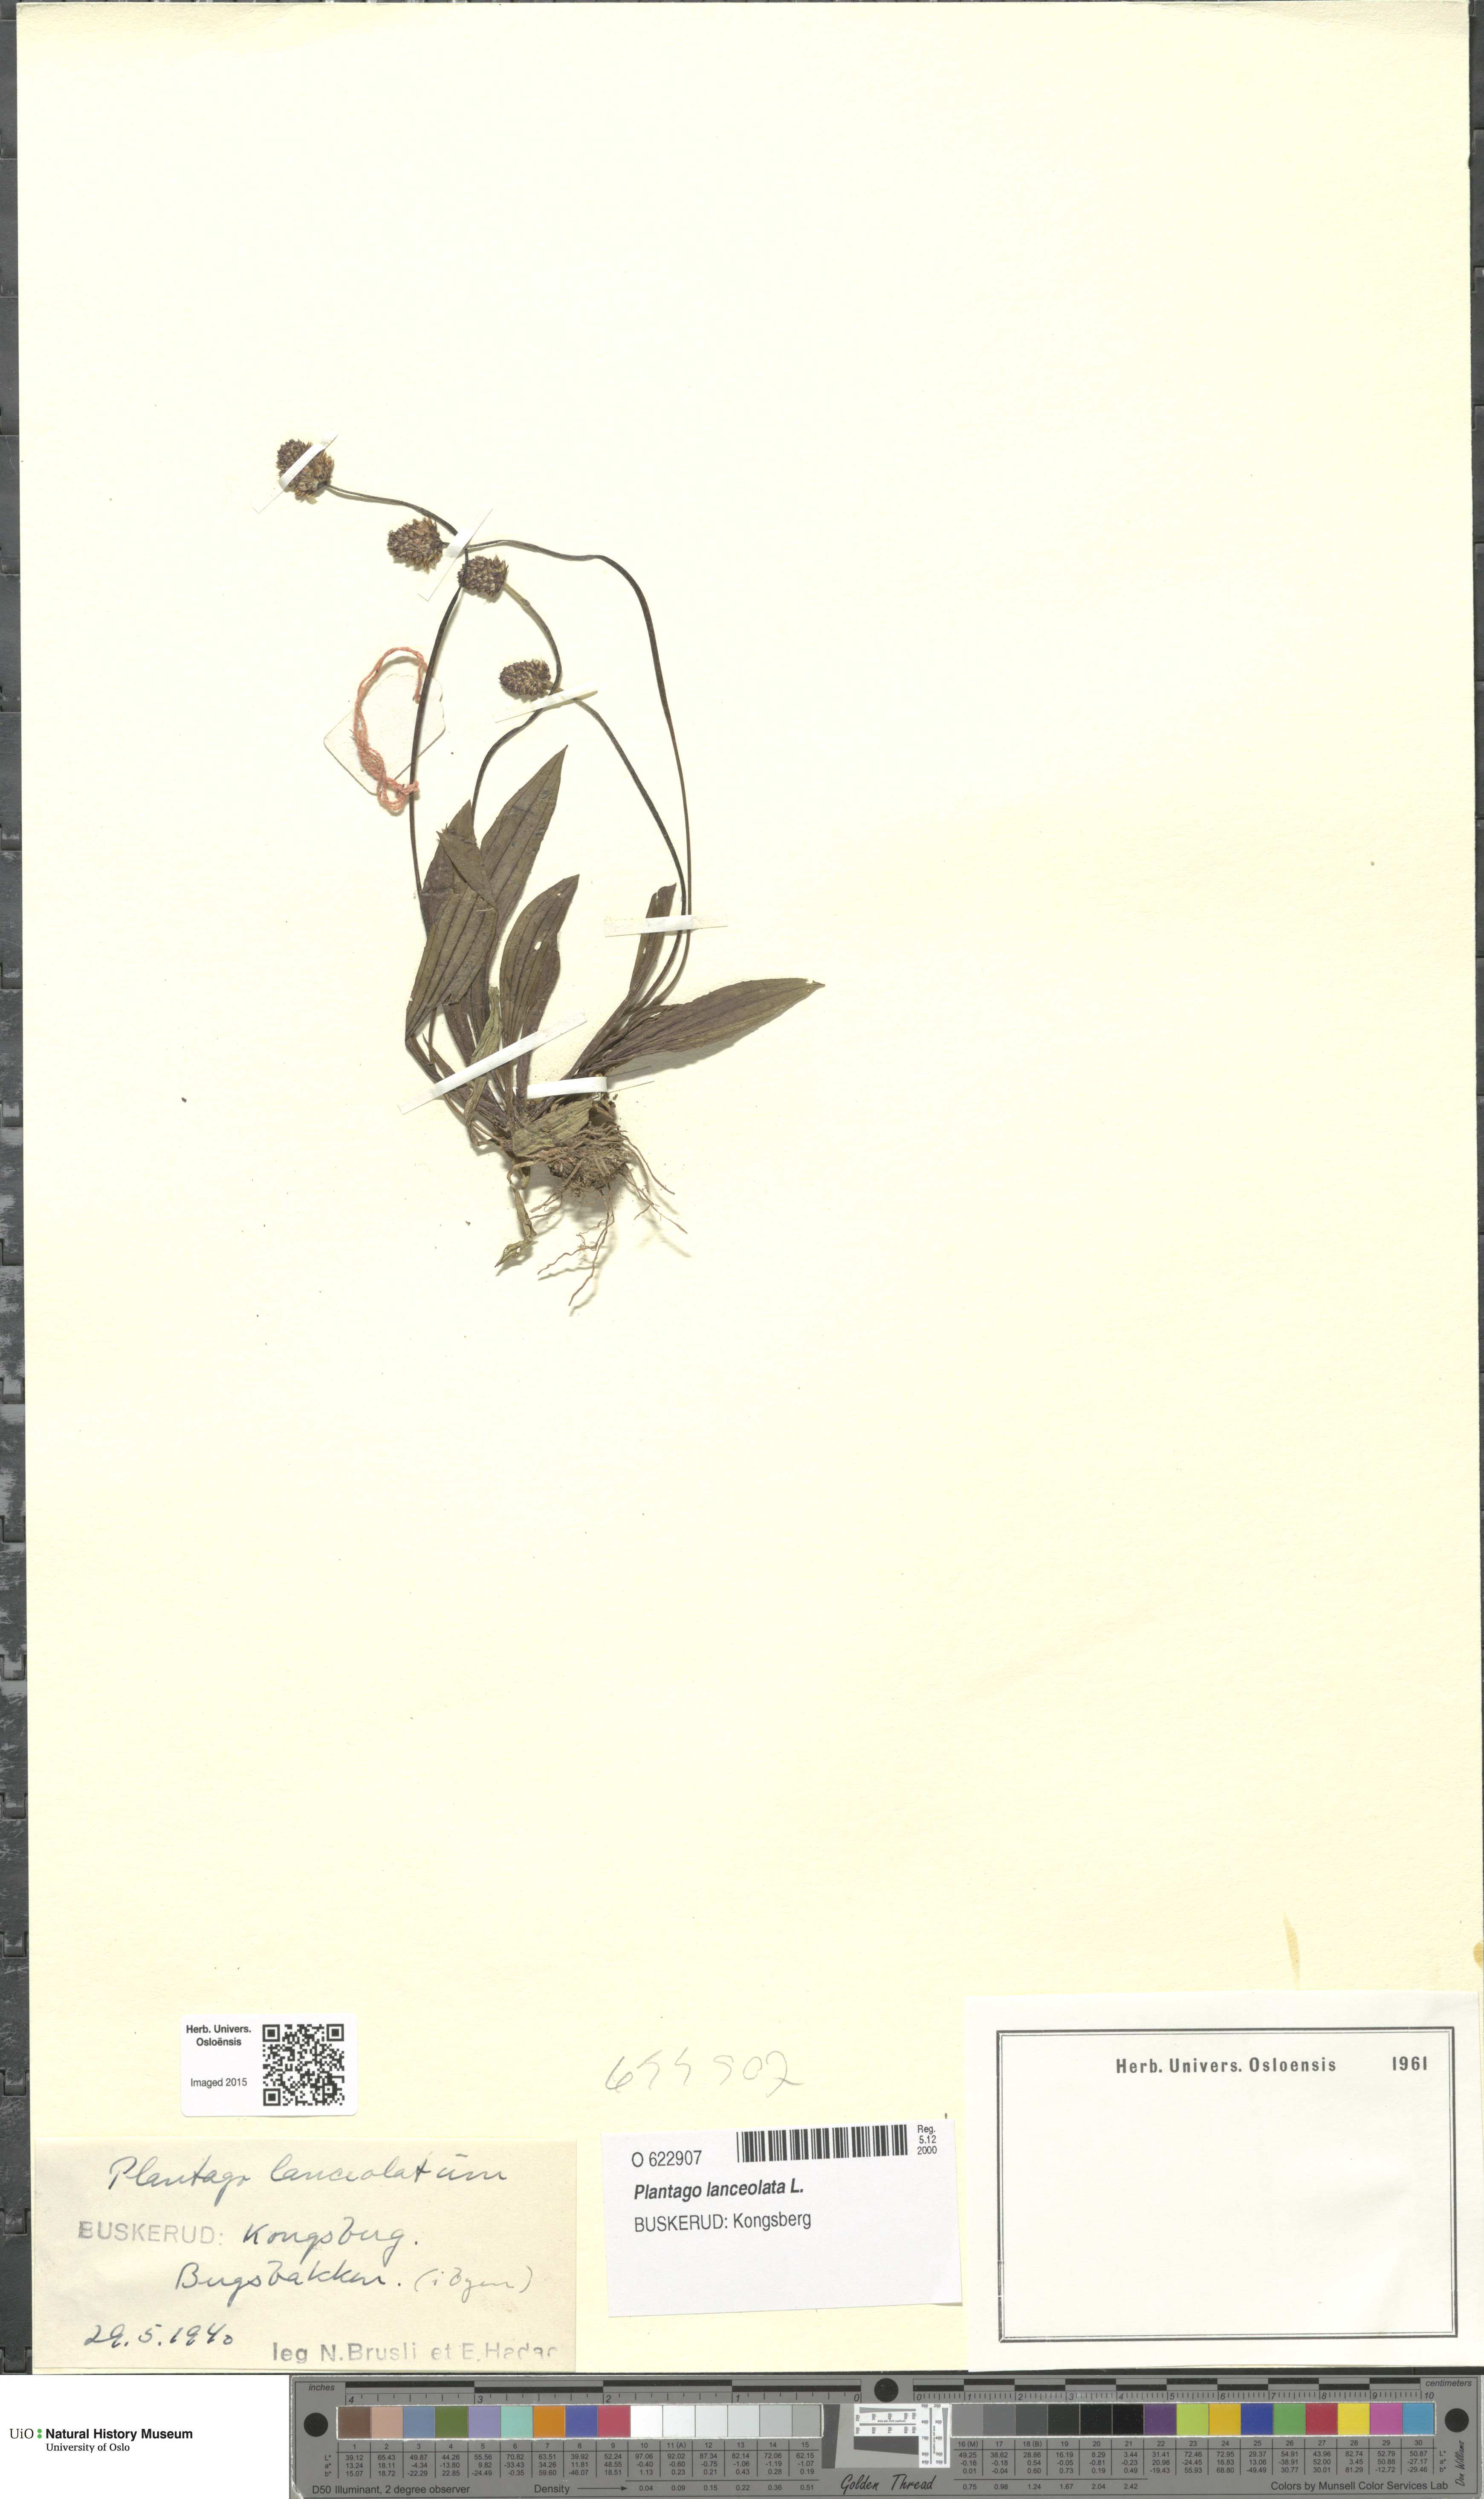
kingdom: Plantae
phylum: Tracheophyta
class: Magnoliopsida
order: Lamiales
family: Plantaginaceae
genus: Plantago
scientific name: Plantago lanceolata
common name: Ribwort plantain
